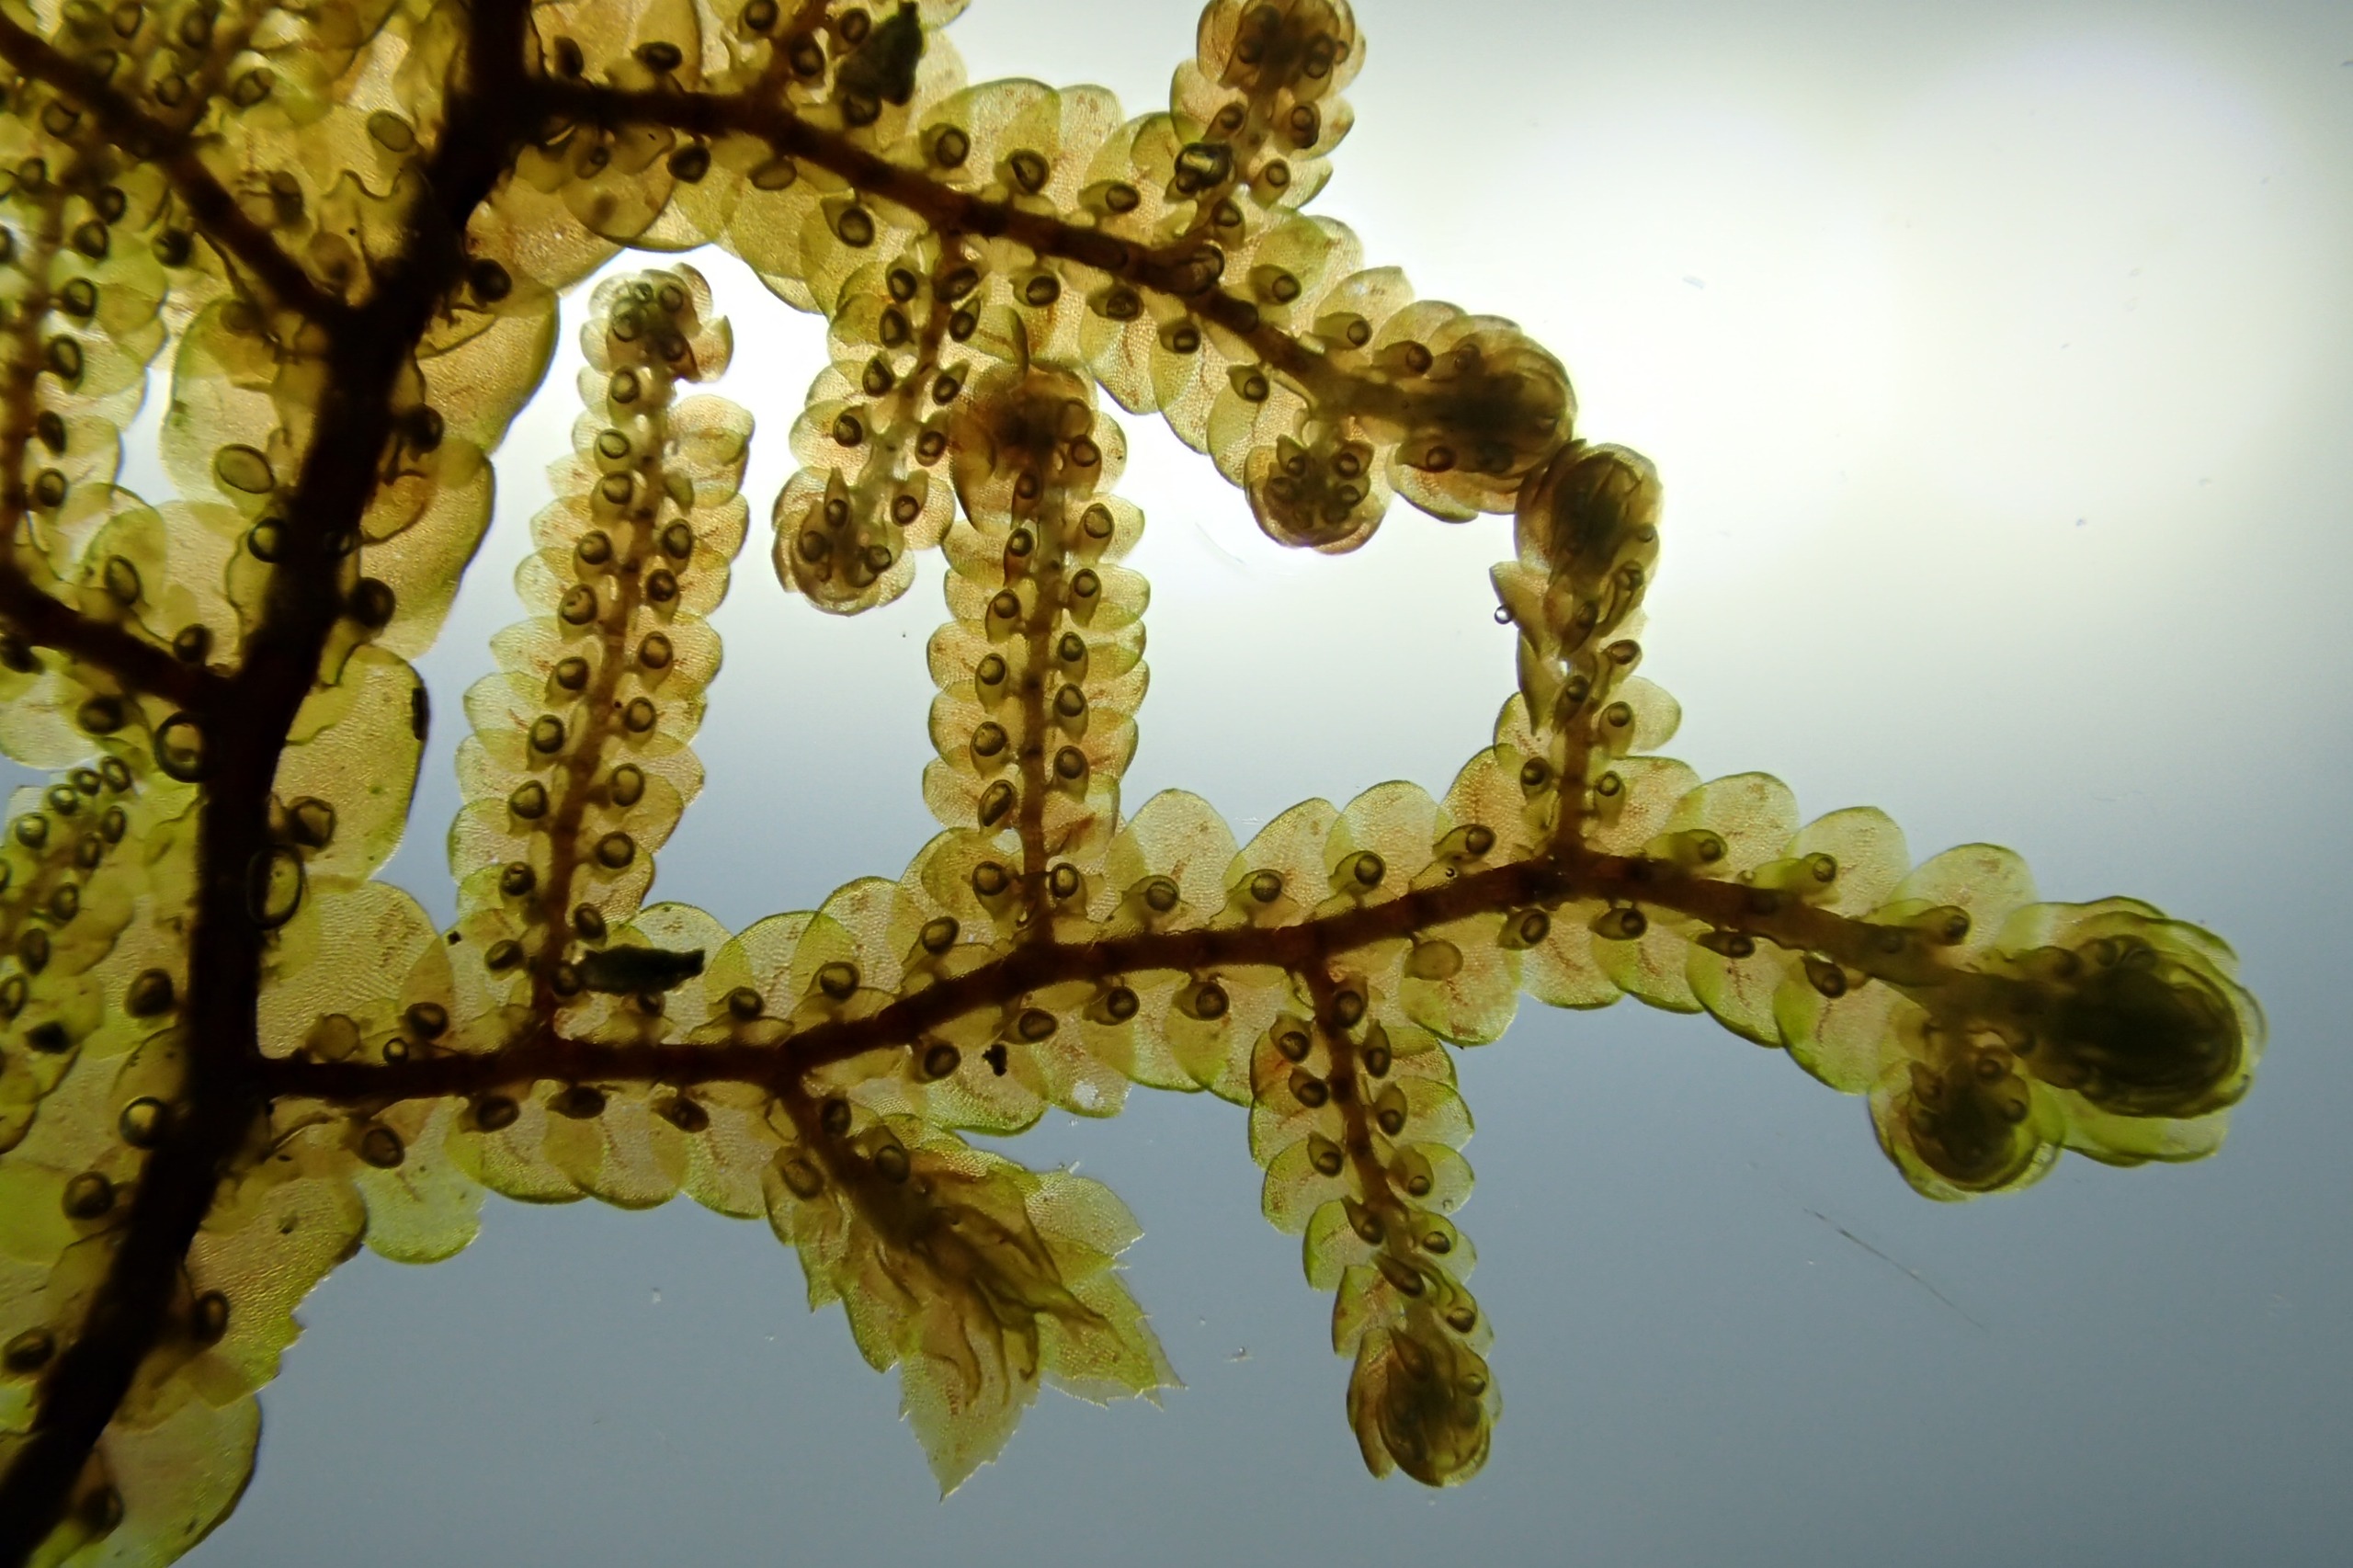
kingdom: Plantae
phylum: Marchantiophyta
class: Jungermanniopsida
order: Porellales
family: Frullaniaceae
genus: Frullania
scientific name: Frullania tamarisci
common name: Glinsende bronzemos
